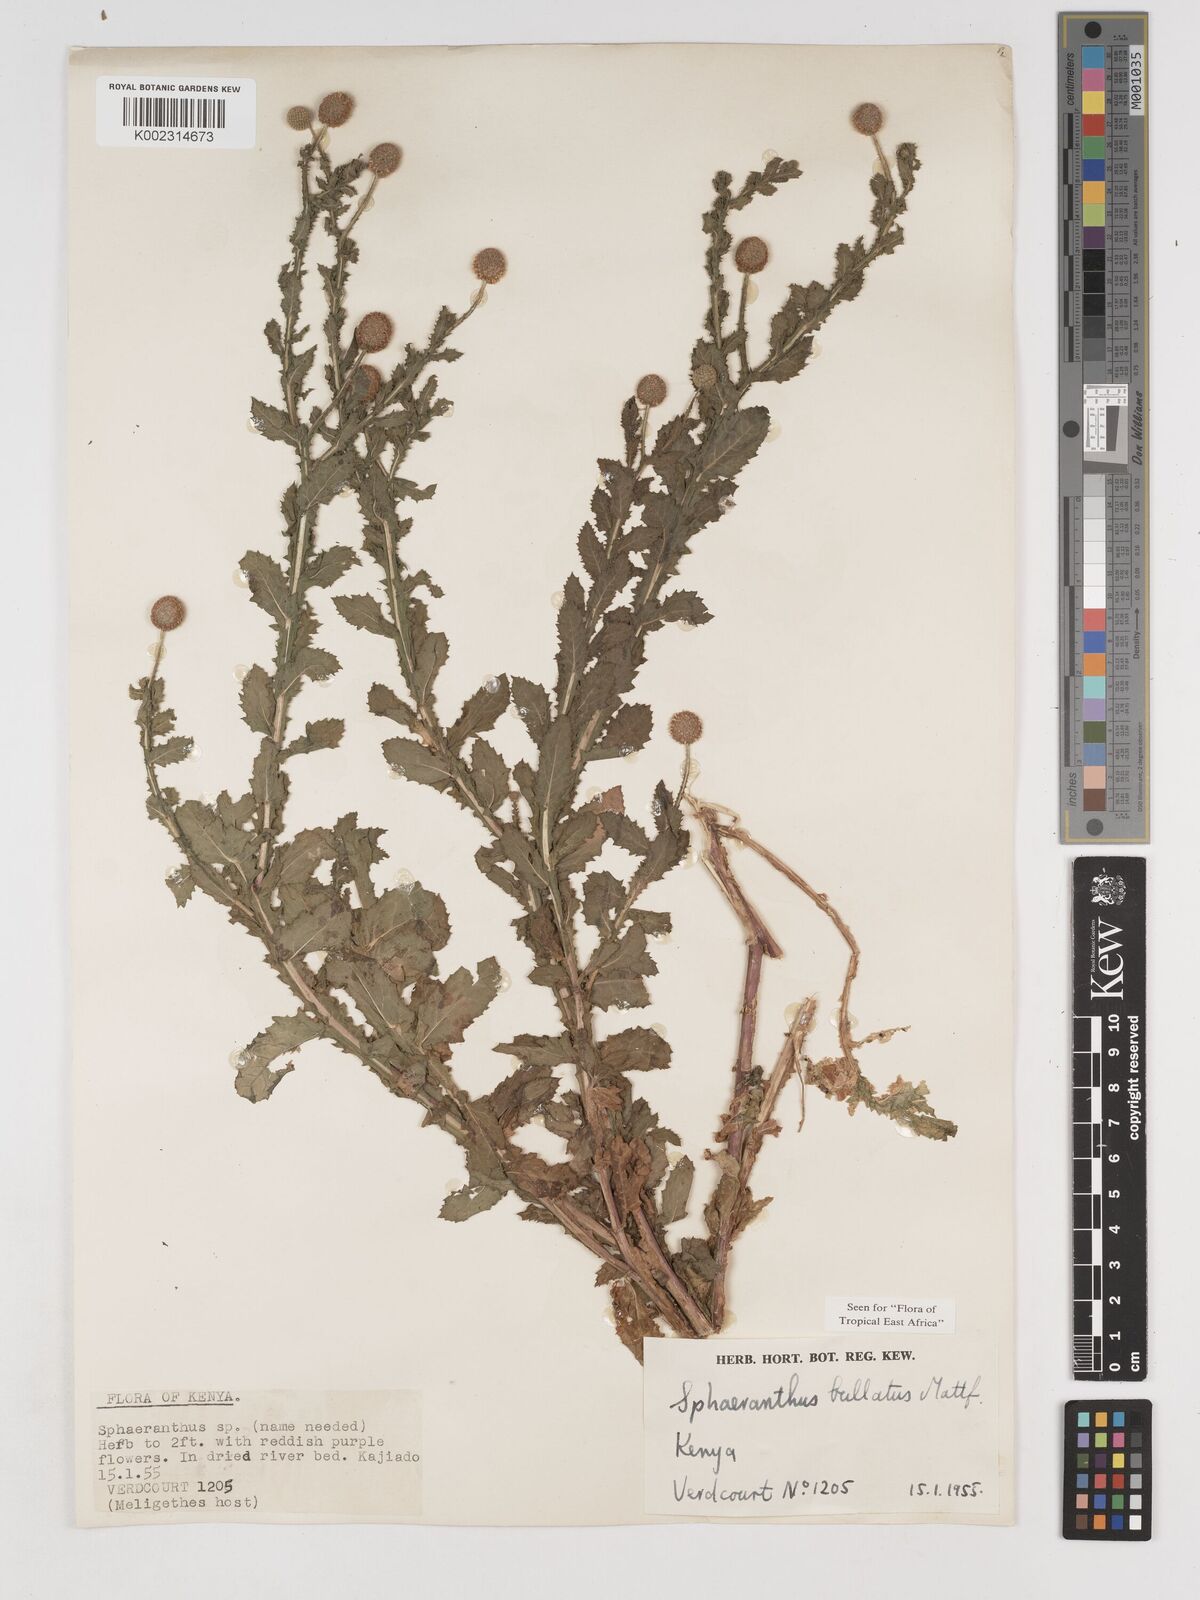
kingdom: Plantae
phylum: Tracheophyta
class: Magnoliopsida
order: Asterales
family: Asteraceae
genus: Sphaeranthus
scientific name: Sphaeranthus bullatus
